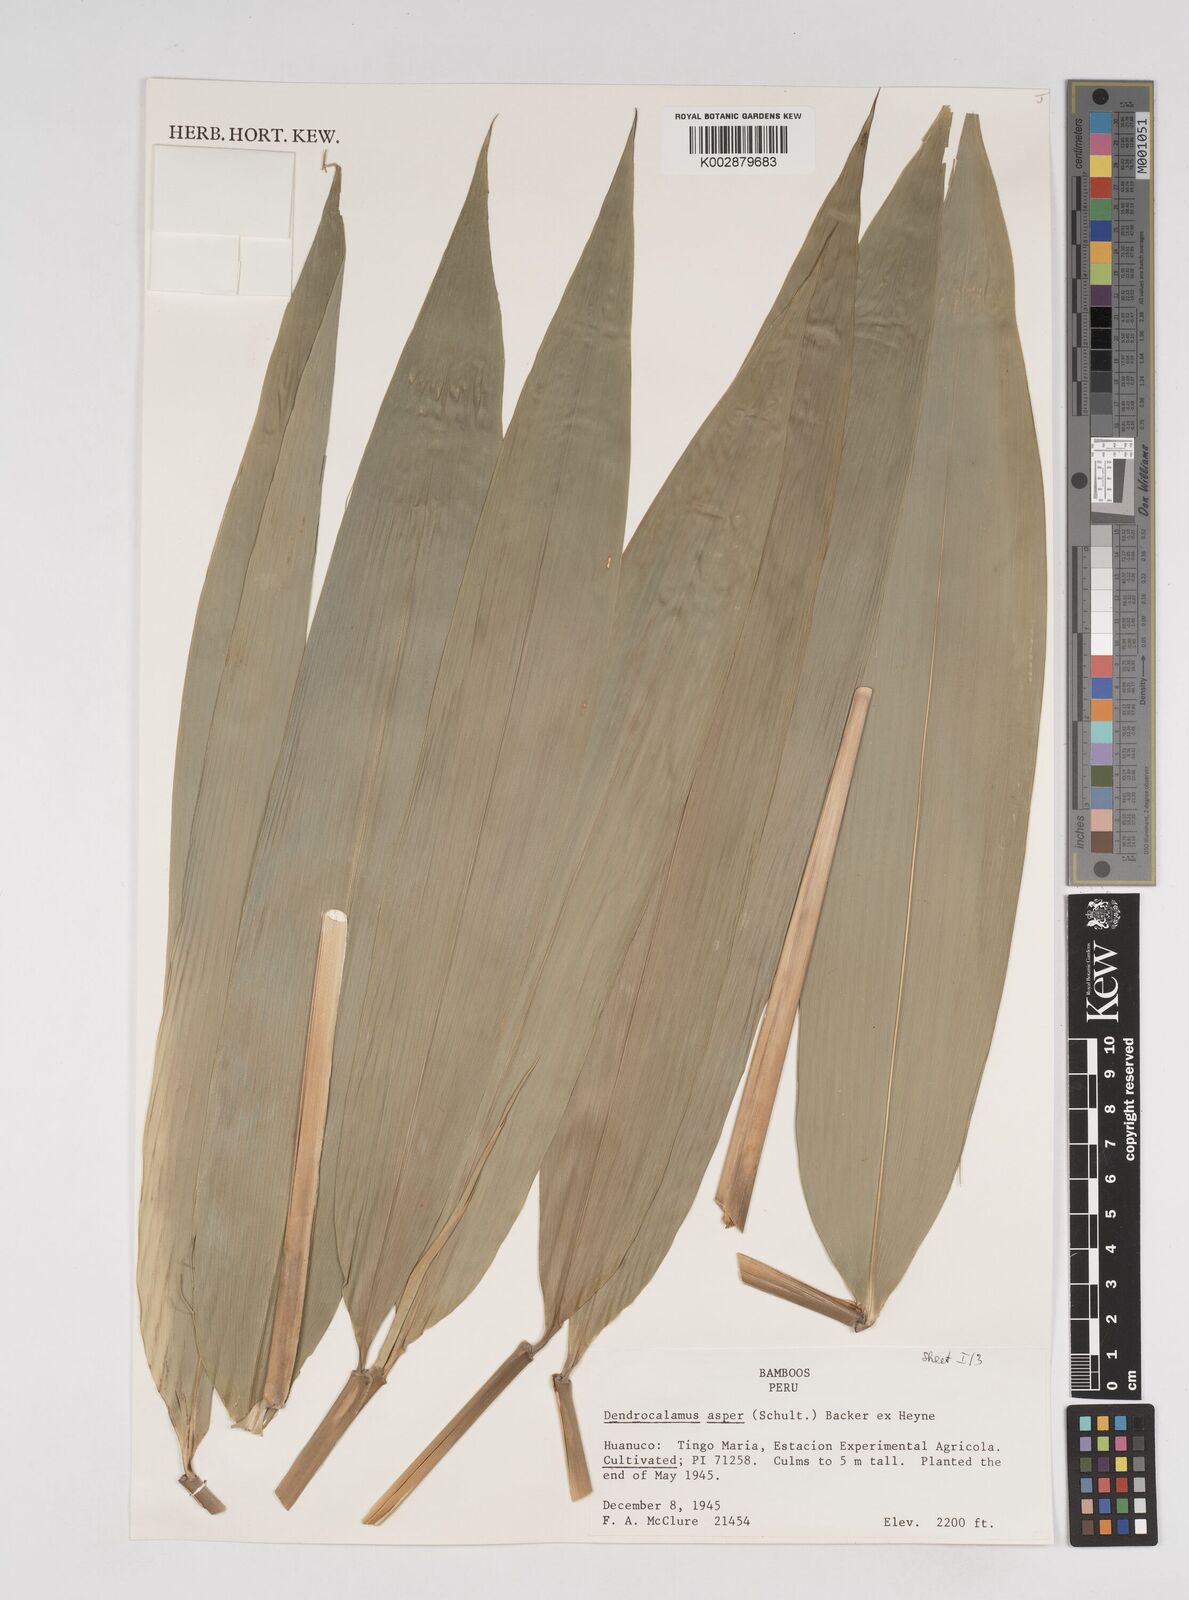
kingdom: Plantae
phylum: Tracheophyta
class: Liliopsida
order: Poales
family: Poaceae
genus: Dendrocalamus
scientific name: Dendrocalamus asper
